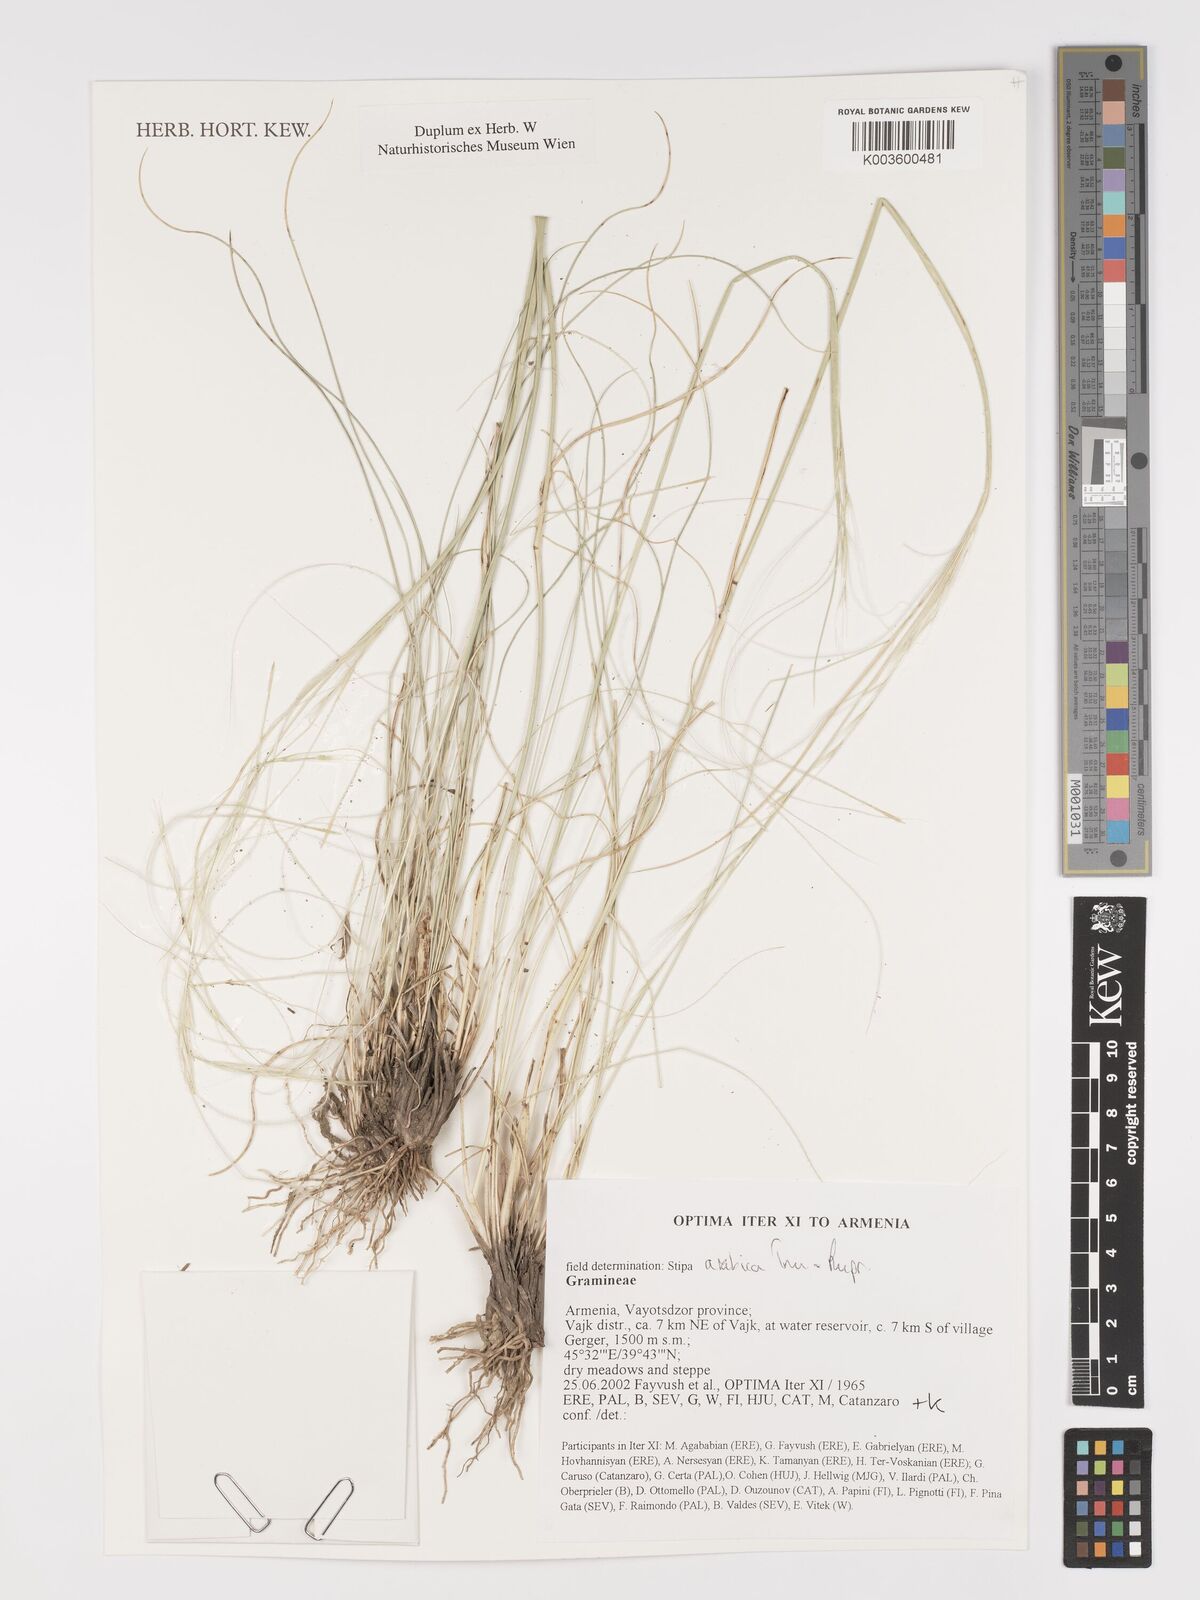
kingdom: Plantae
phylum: Tracheophyta
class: Liliopsida
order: Poales
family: Poaceae
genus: Stipa
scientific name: Stipa arabica
